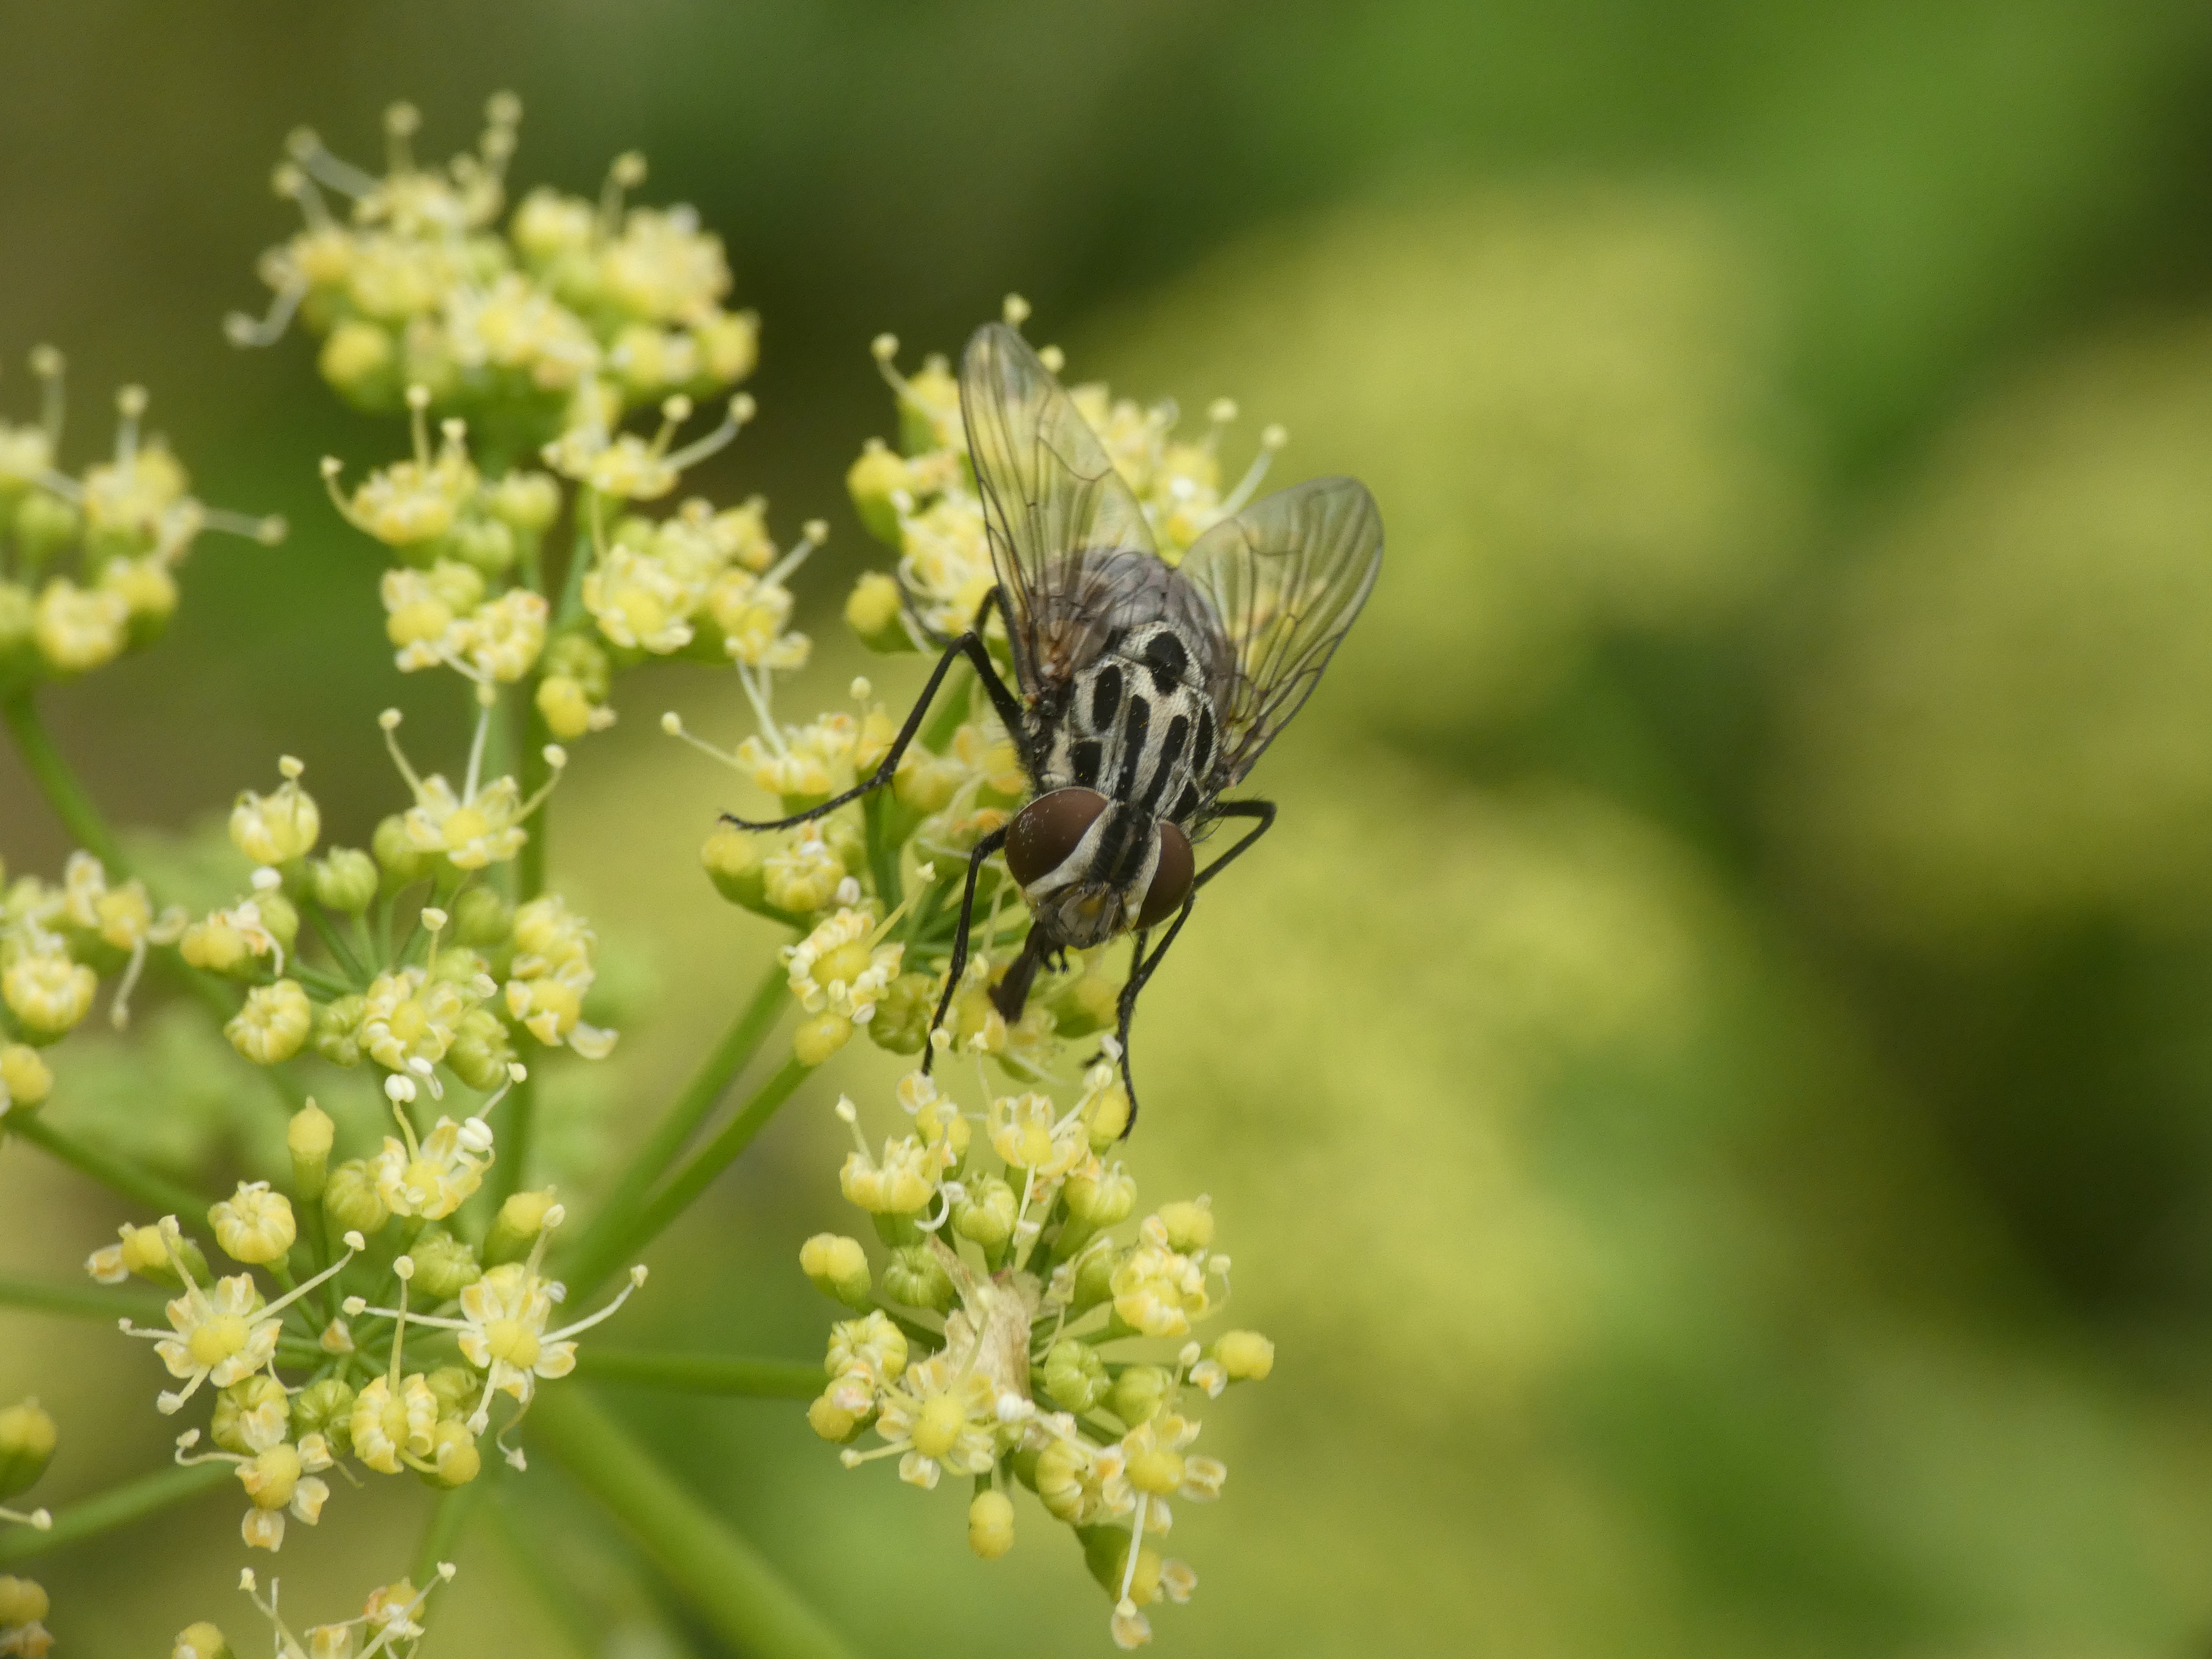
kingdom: Animalia
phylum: Arthropoda
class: Insecta
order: Diptera
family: Muscidae
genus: Graphomya
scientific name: Graphomya maculata
